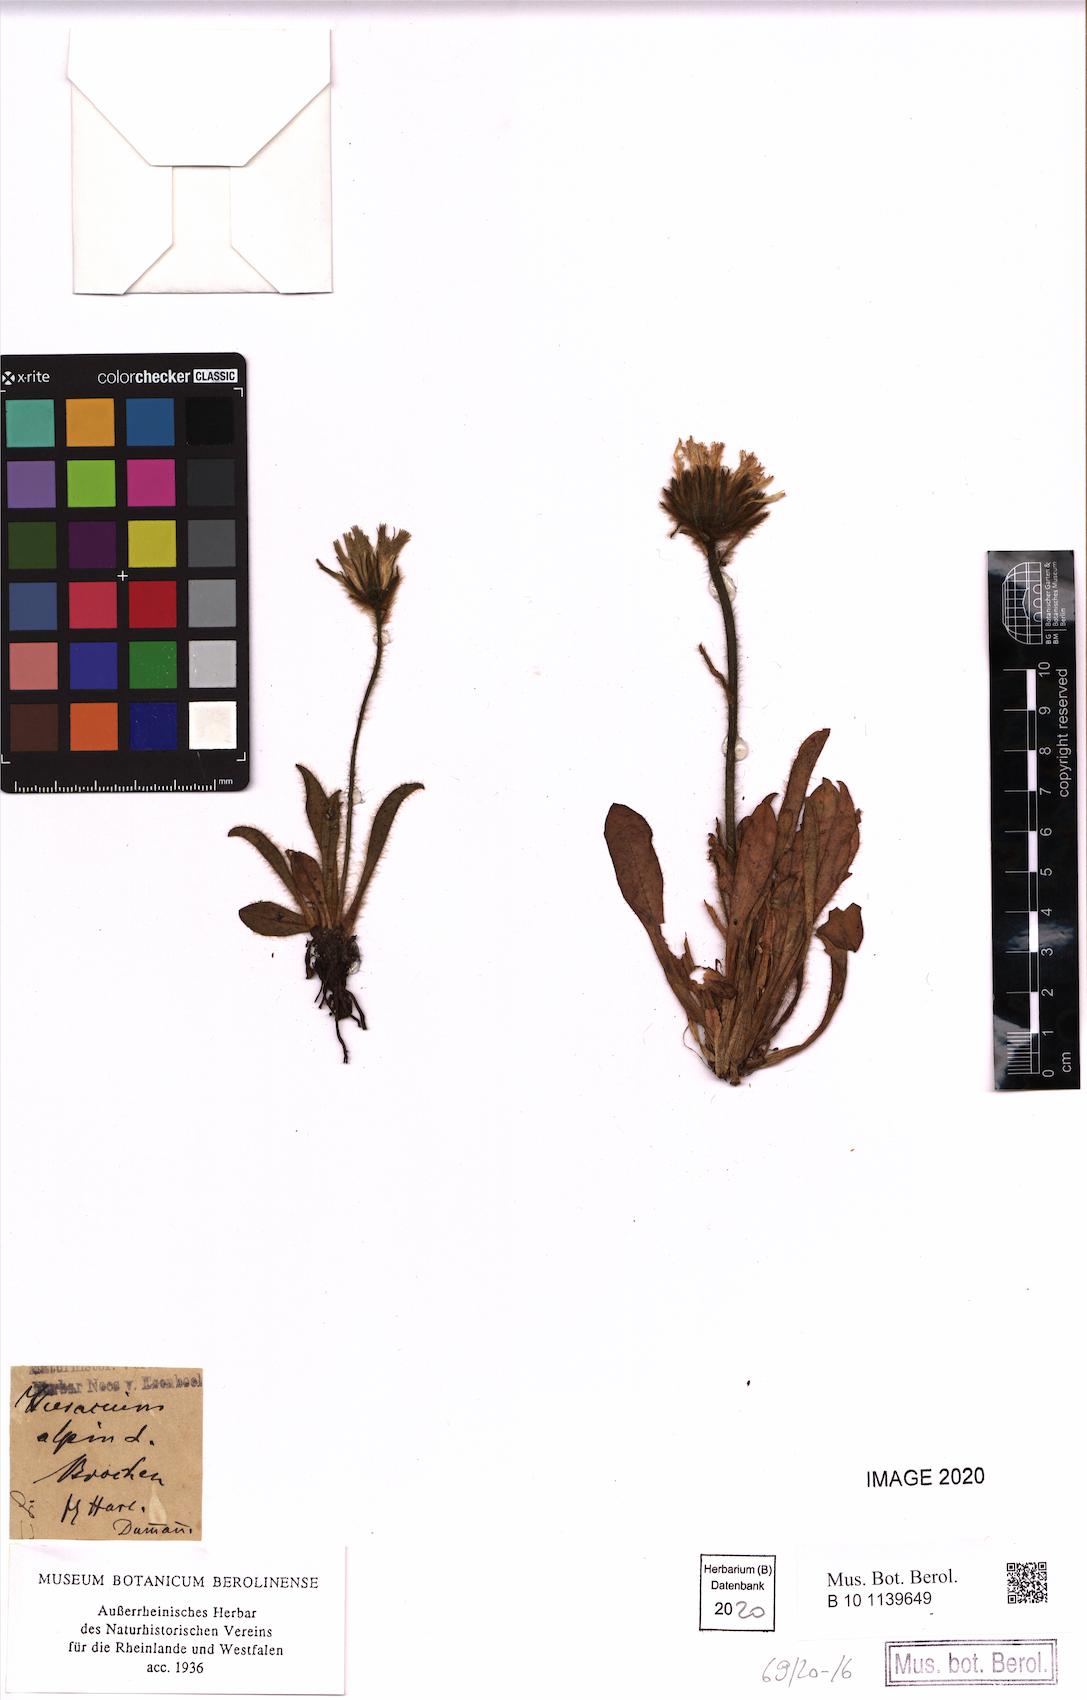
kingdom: Plantae
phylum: Tracheophyta
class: Magnoliopsida
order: Asterales
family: Asteraceae
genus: Hieracium
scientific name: Hieracium alpinum
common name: Alpine hawkweed
